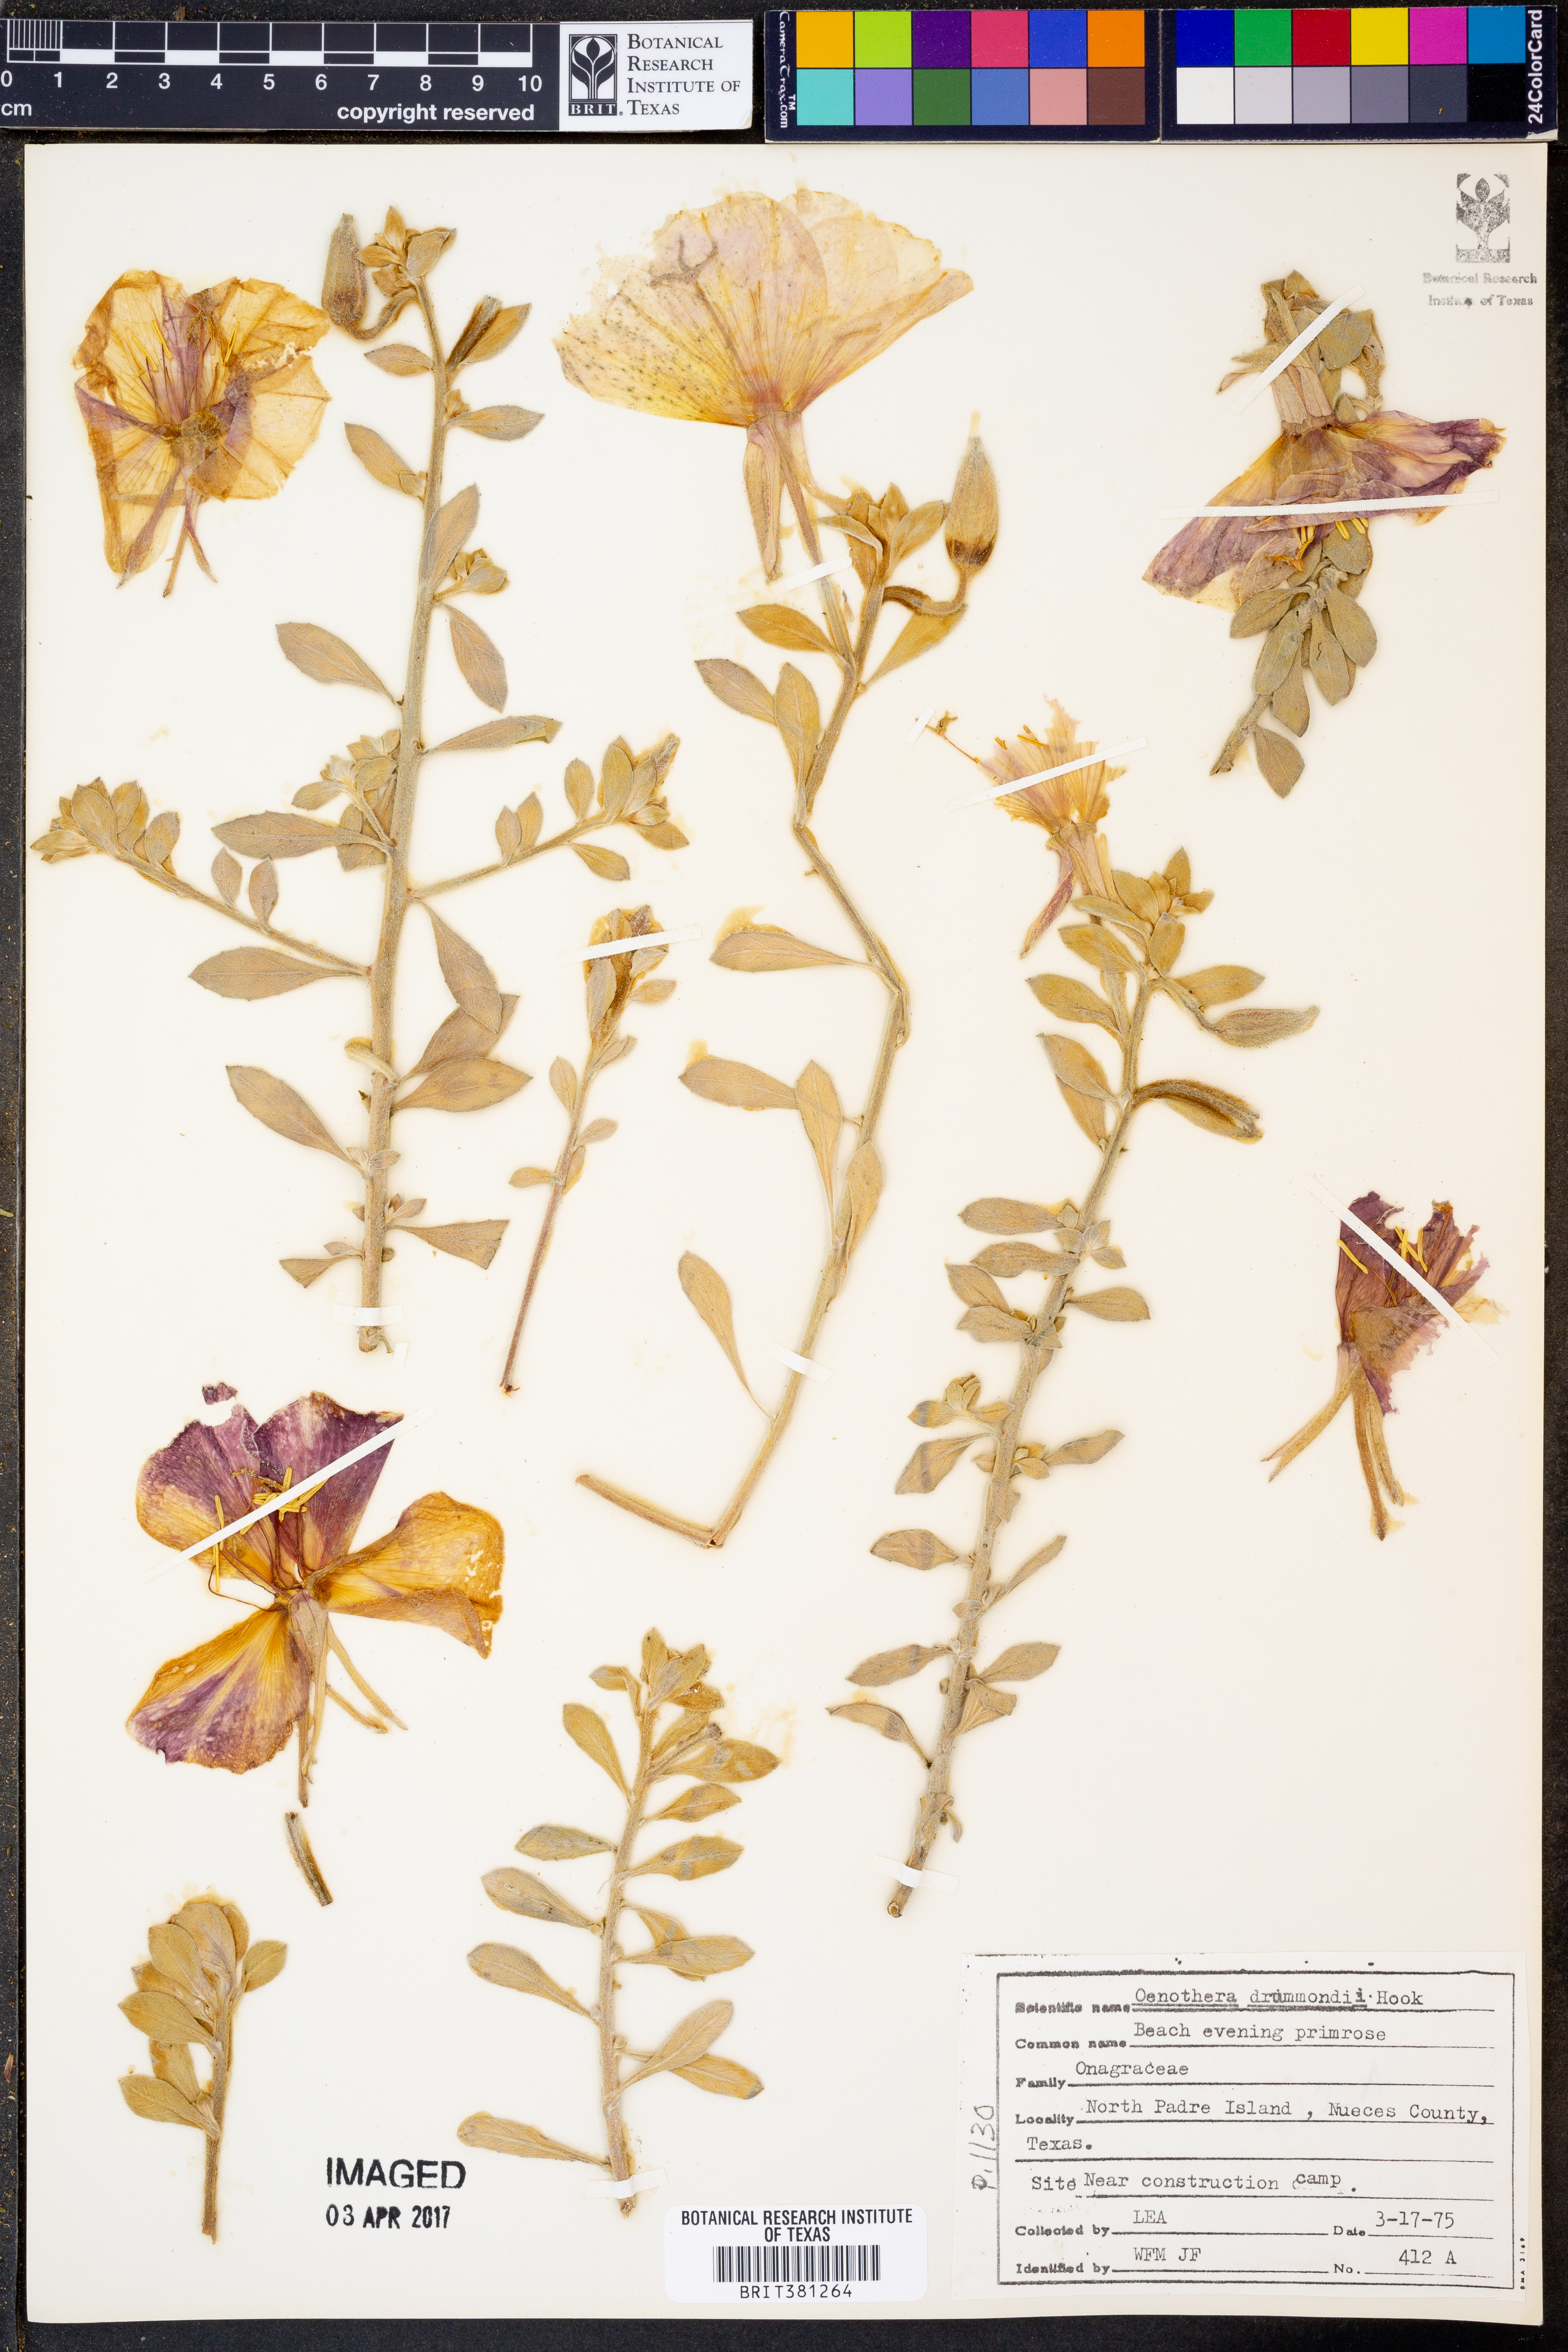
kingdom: Plantae
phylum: Tracheophyta
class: Magnoliopsida
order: Myrtales
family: Onagraceae
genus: Oenothera
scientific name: Oenothera drummondii
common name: Beach evening-primrose
